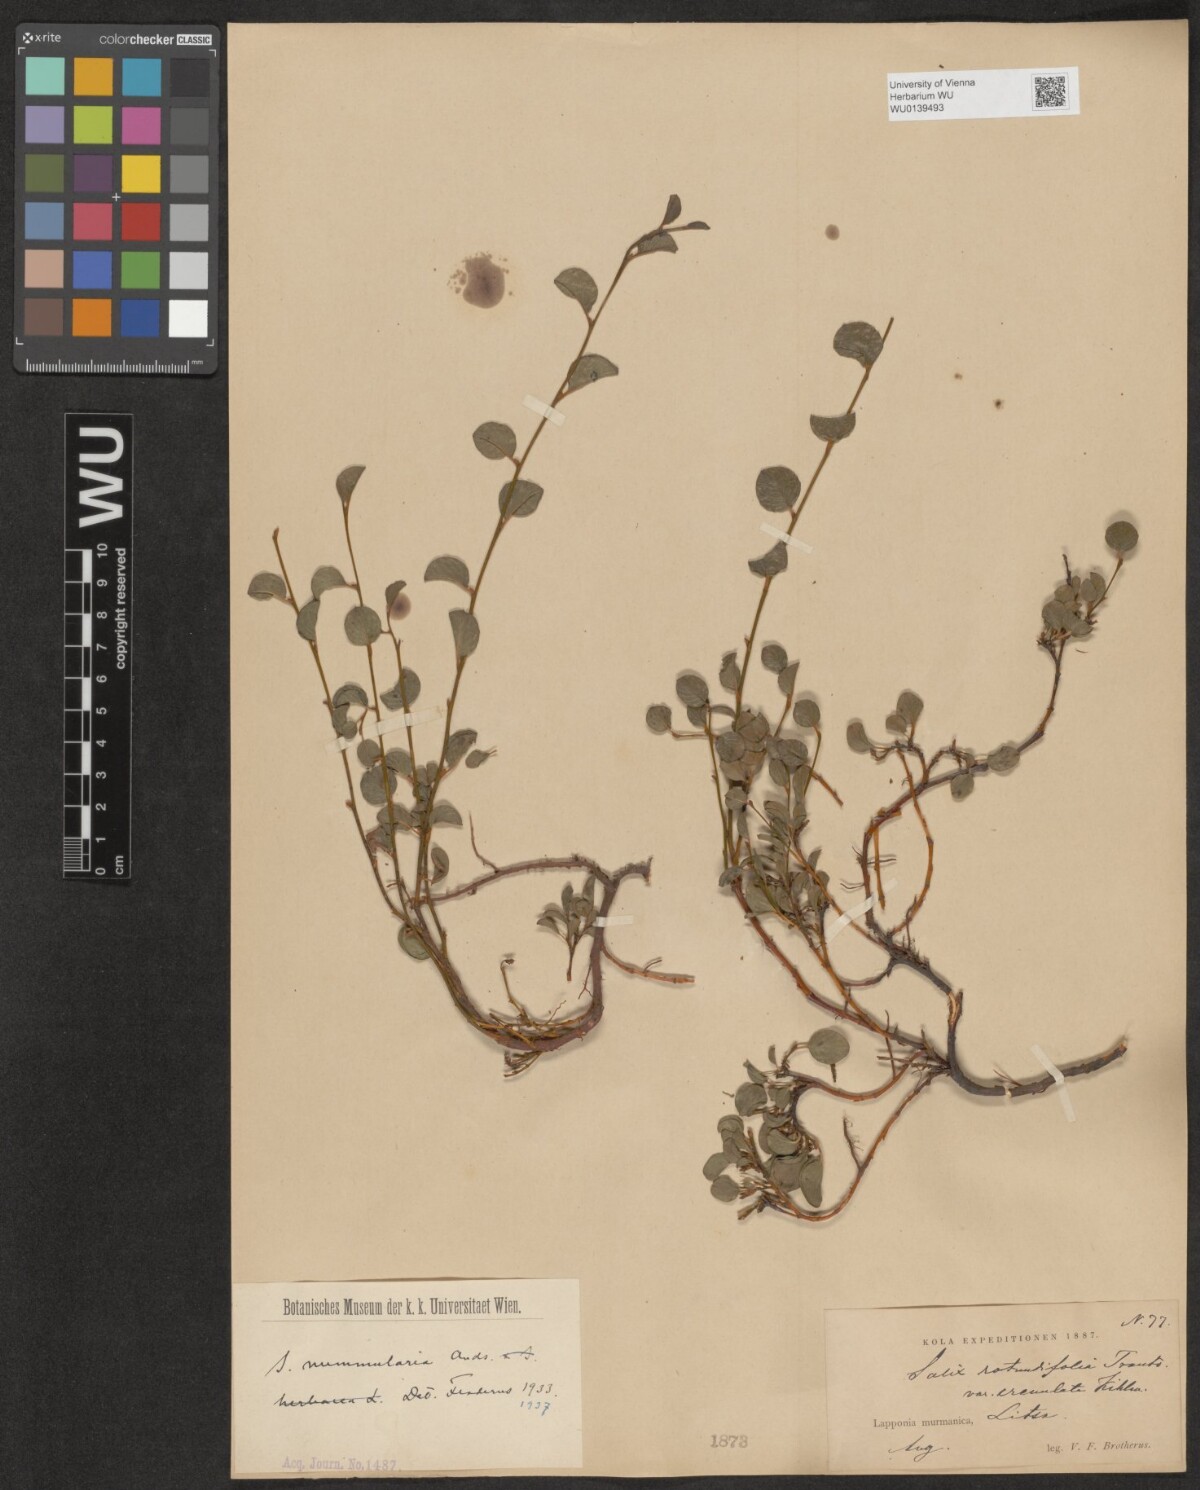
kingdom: Plantae
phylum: Tracheophyta
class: Magnoliopsida
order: Malpighiales
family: Salicaceae
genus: Salix
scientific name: Salix rotundifolia
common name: Least willow
